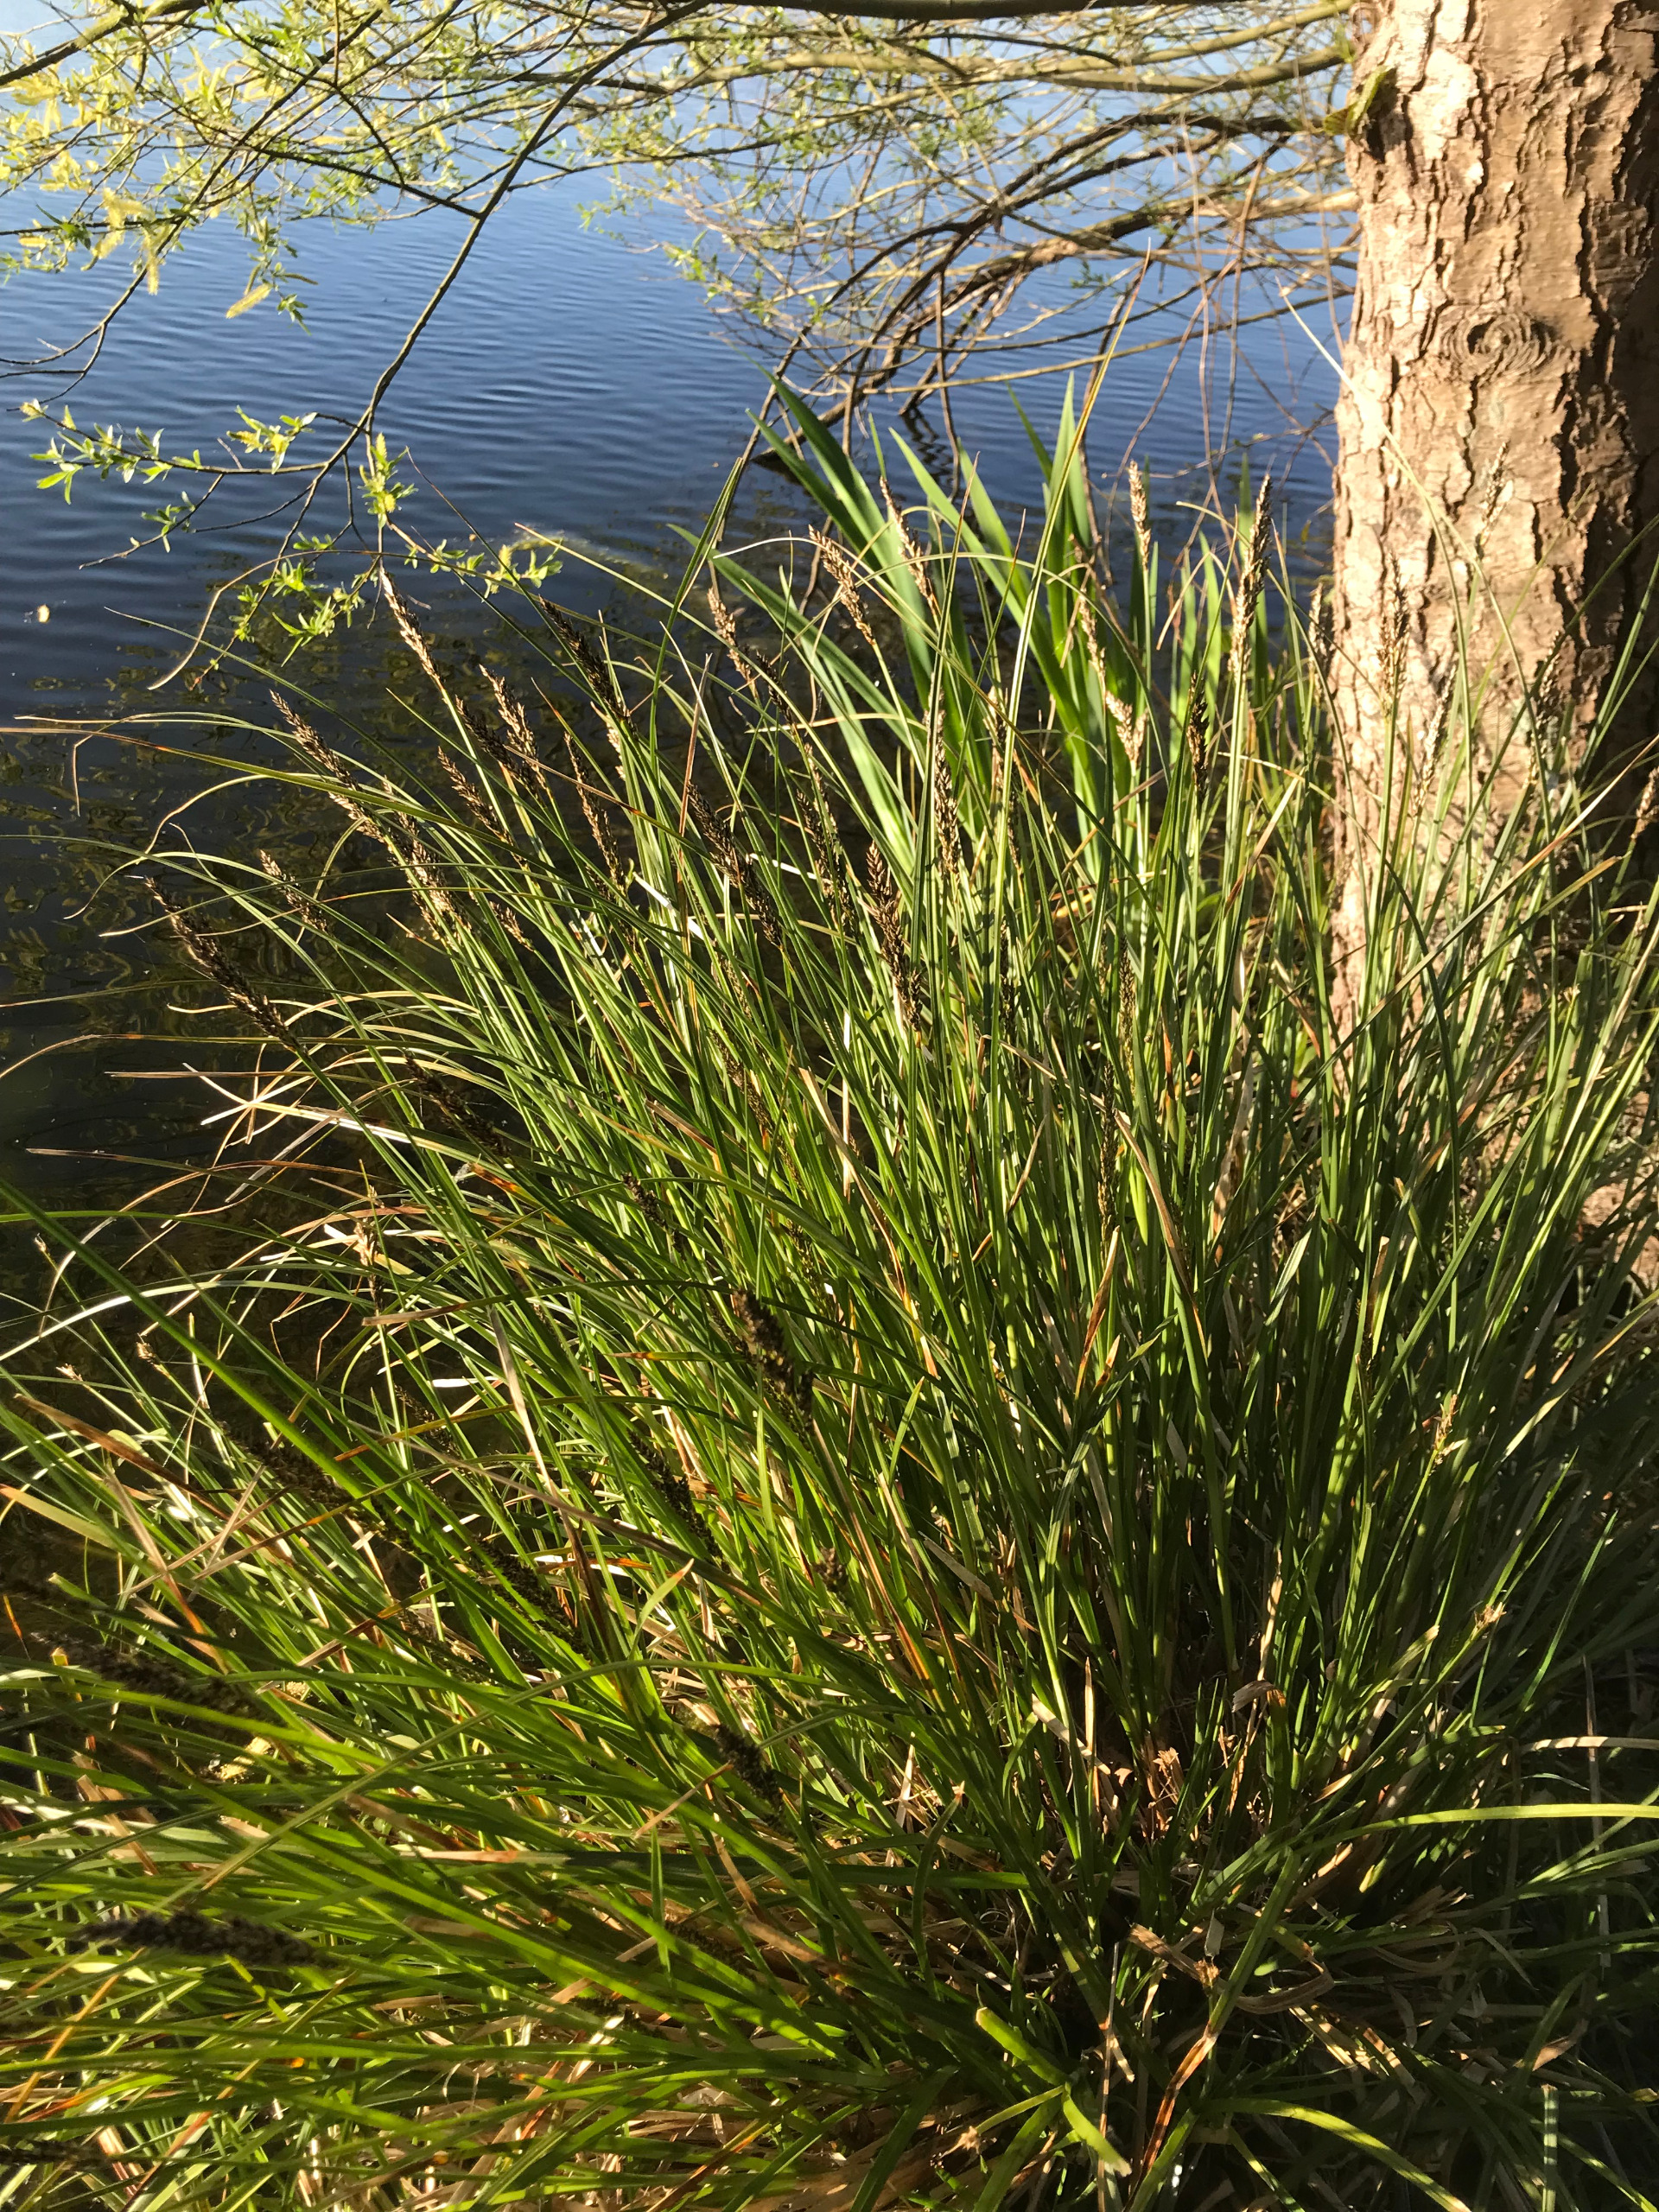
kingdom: Plantae
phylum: Tracheophyta
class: Liliopsida
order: Poales
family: Cyperaceae
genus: Carex
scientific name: Carex paniculata
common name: Top-star
